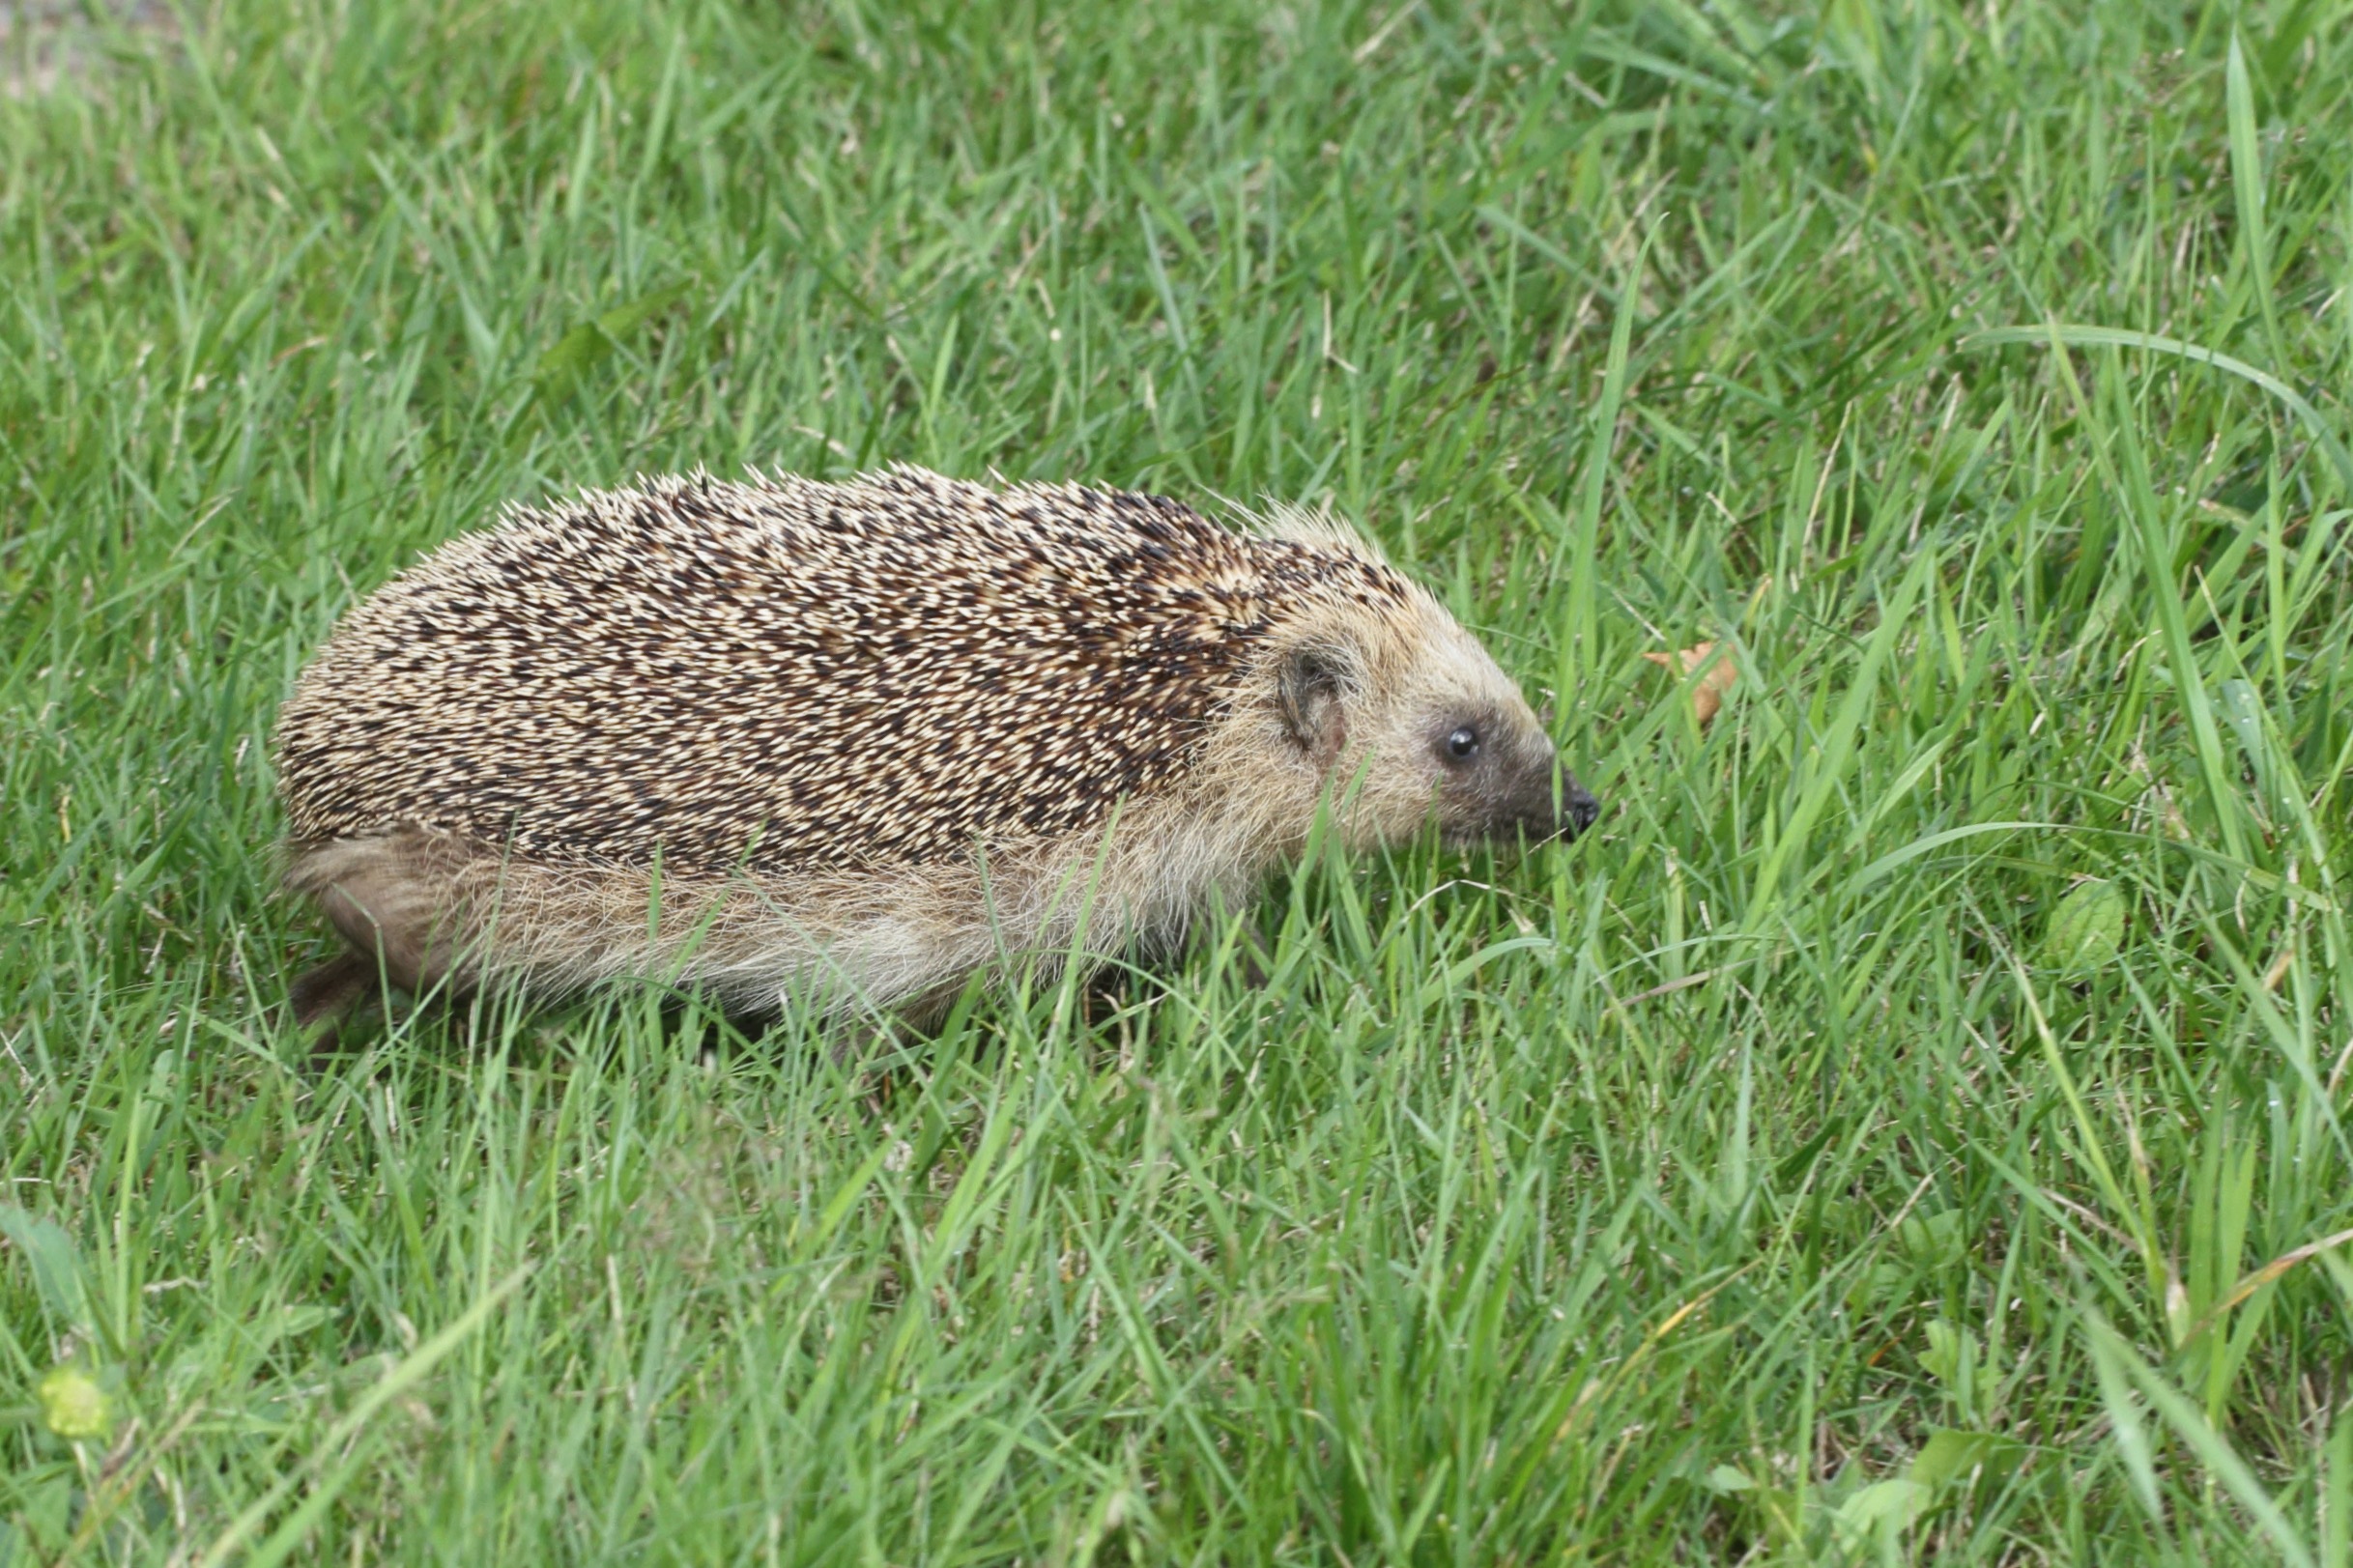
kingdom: Animalia
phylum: Chordata
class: Mammalia
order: Erinaceomorpha
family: Erinaceidae
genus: Erinaceus
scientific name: Erinaceus europaeus
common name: Pindsvin
